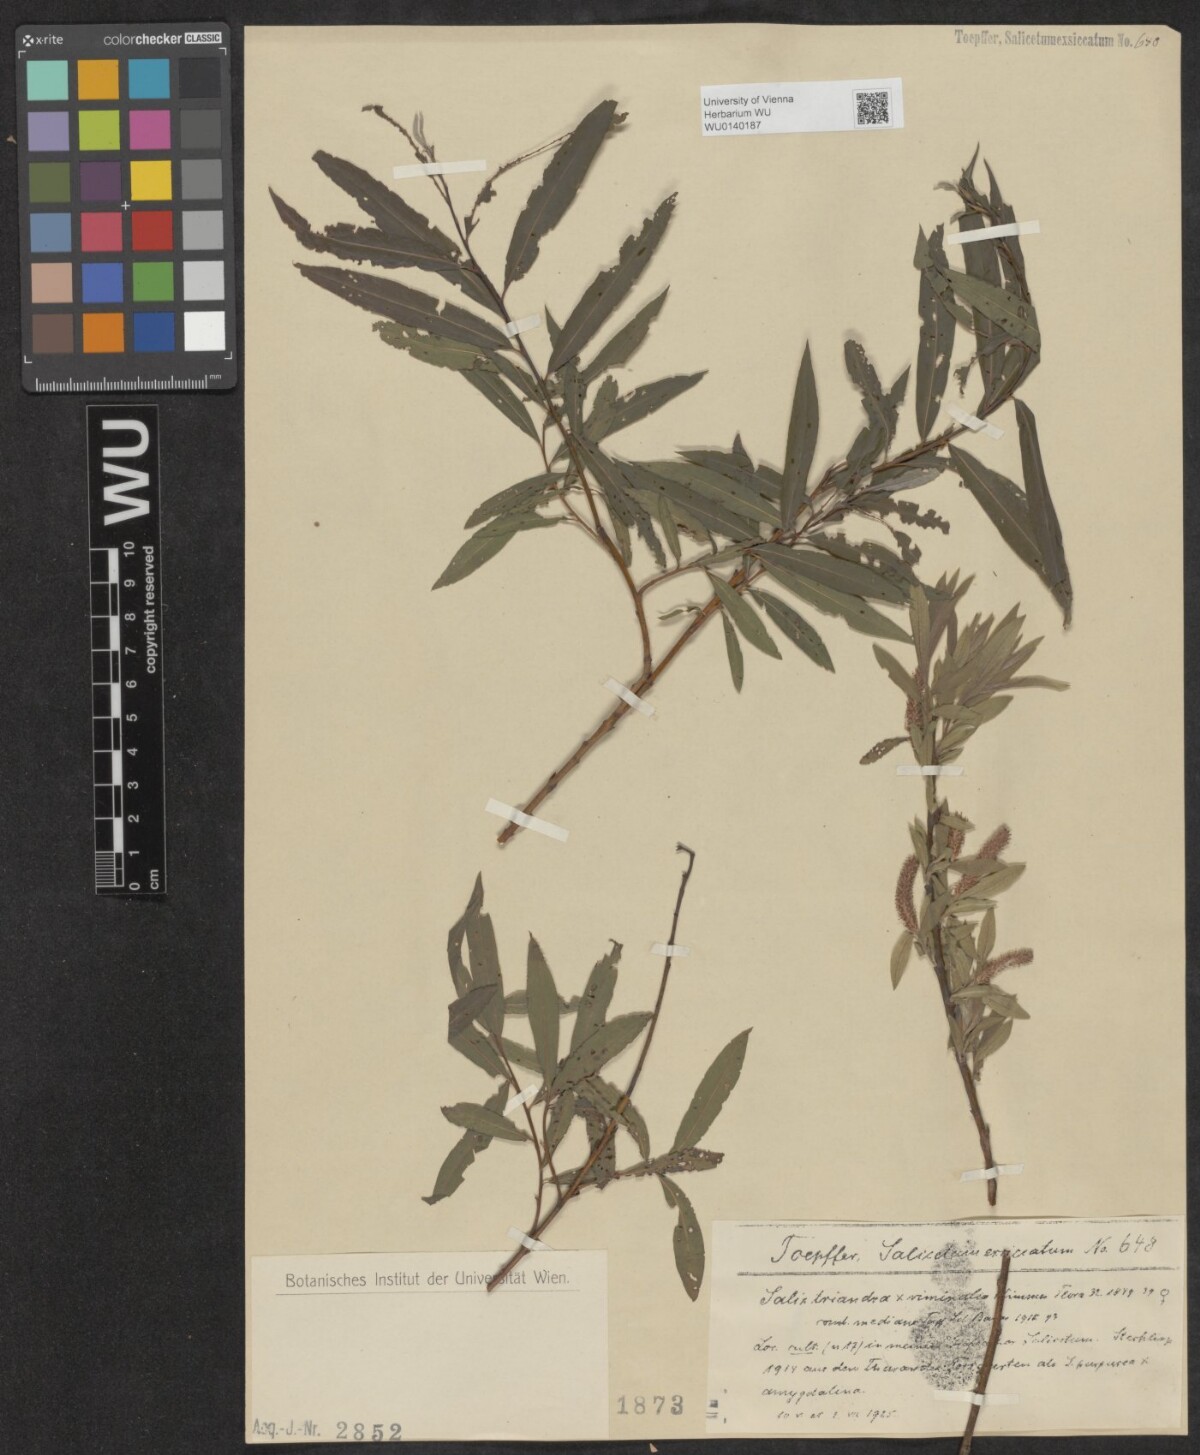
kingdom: Plantae
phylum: Tracheophyta
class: Magnoliopsida
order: Malpighiales
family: Salicaceae
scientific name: Salicaceae
